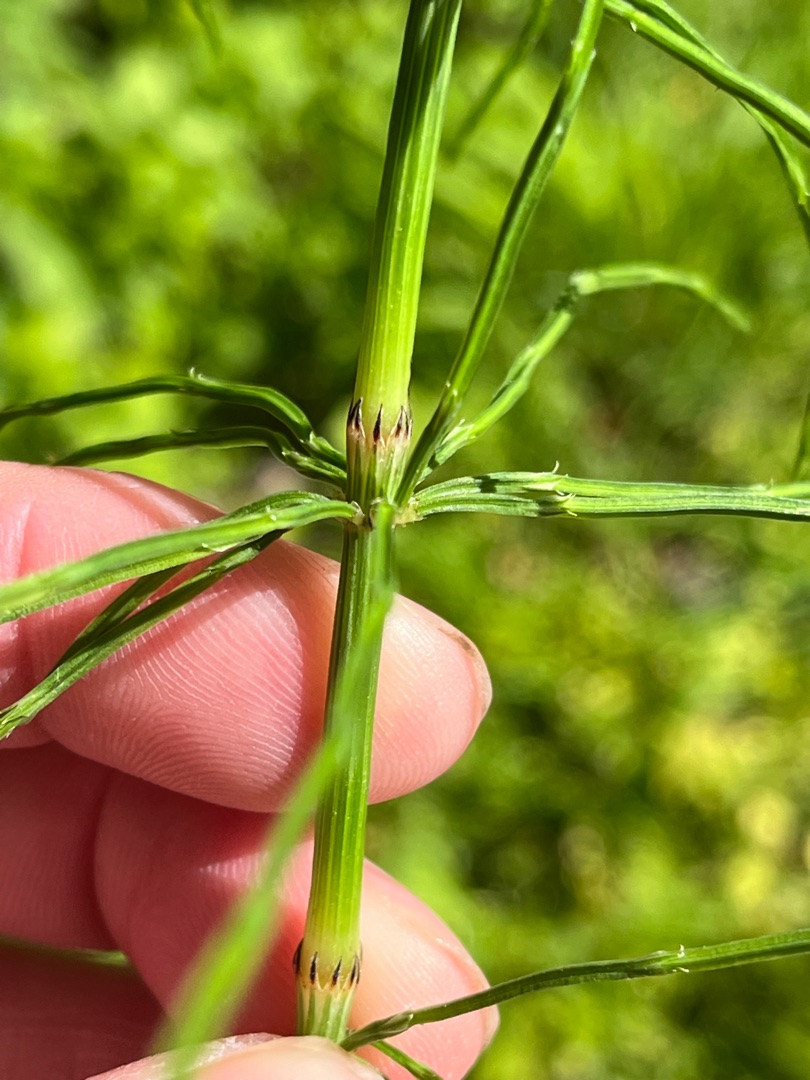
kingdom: Plantae
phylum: Tracheophyta
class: Polypodiopsida
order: Equisetales
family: Equisetaceae
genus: Equisetum
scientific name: Equisetum arvense
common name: Ager-padderok
